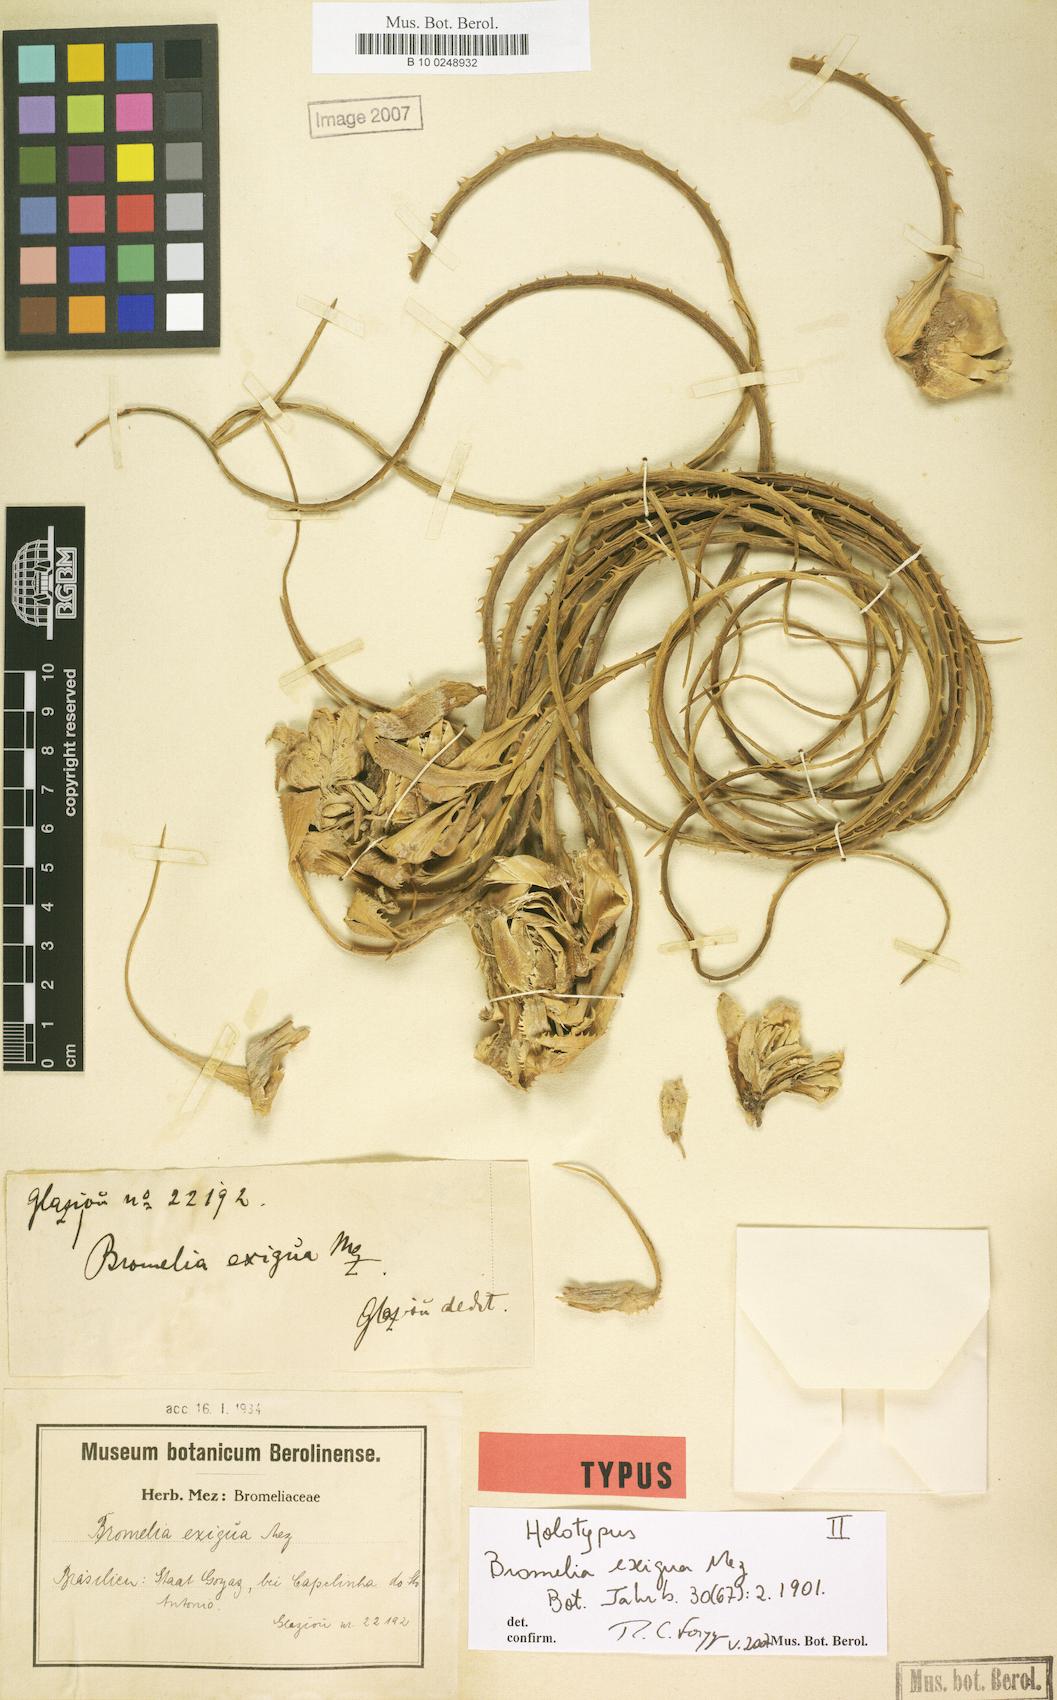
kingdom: Plantae
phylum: Tracheophyta
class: Liliopsida
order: Poales
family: Bromeliaceae
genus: Bromelia
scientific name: Bromelia exigua
